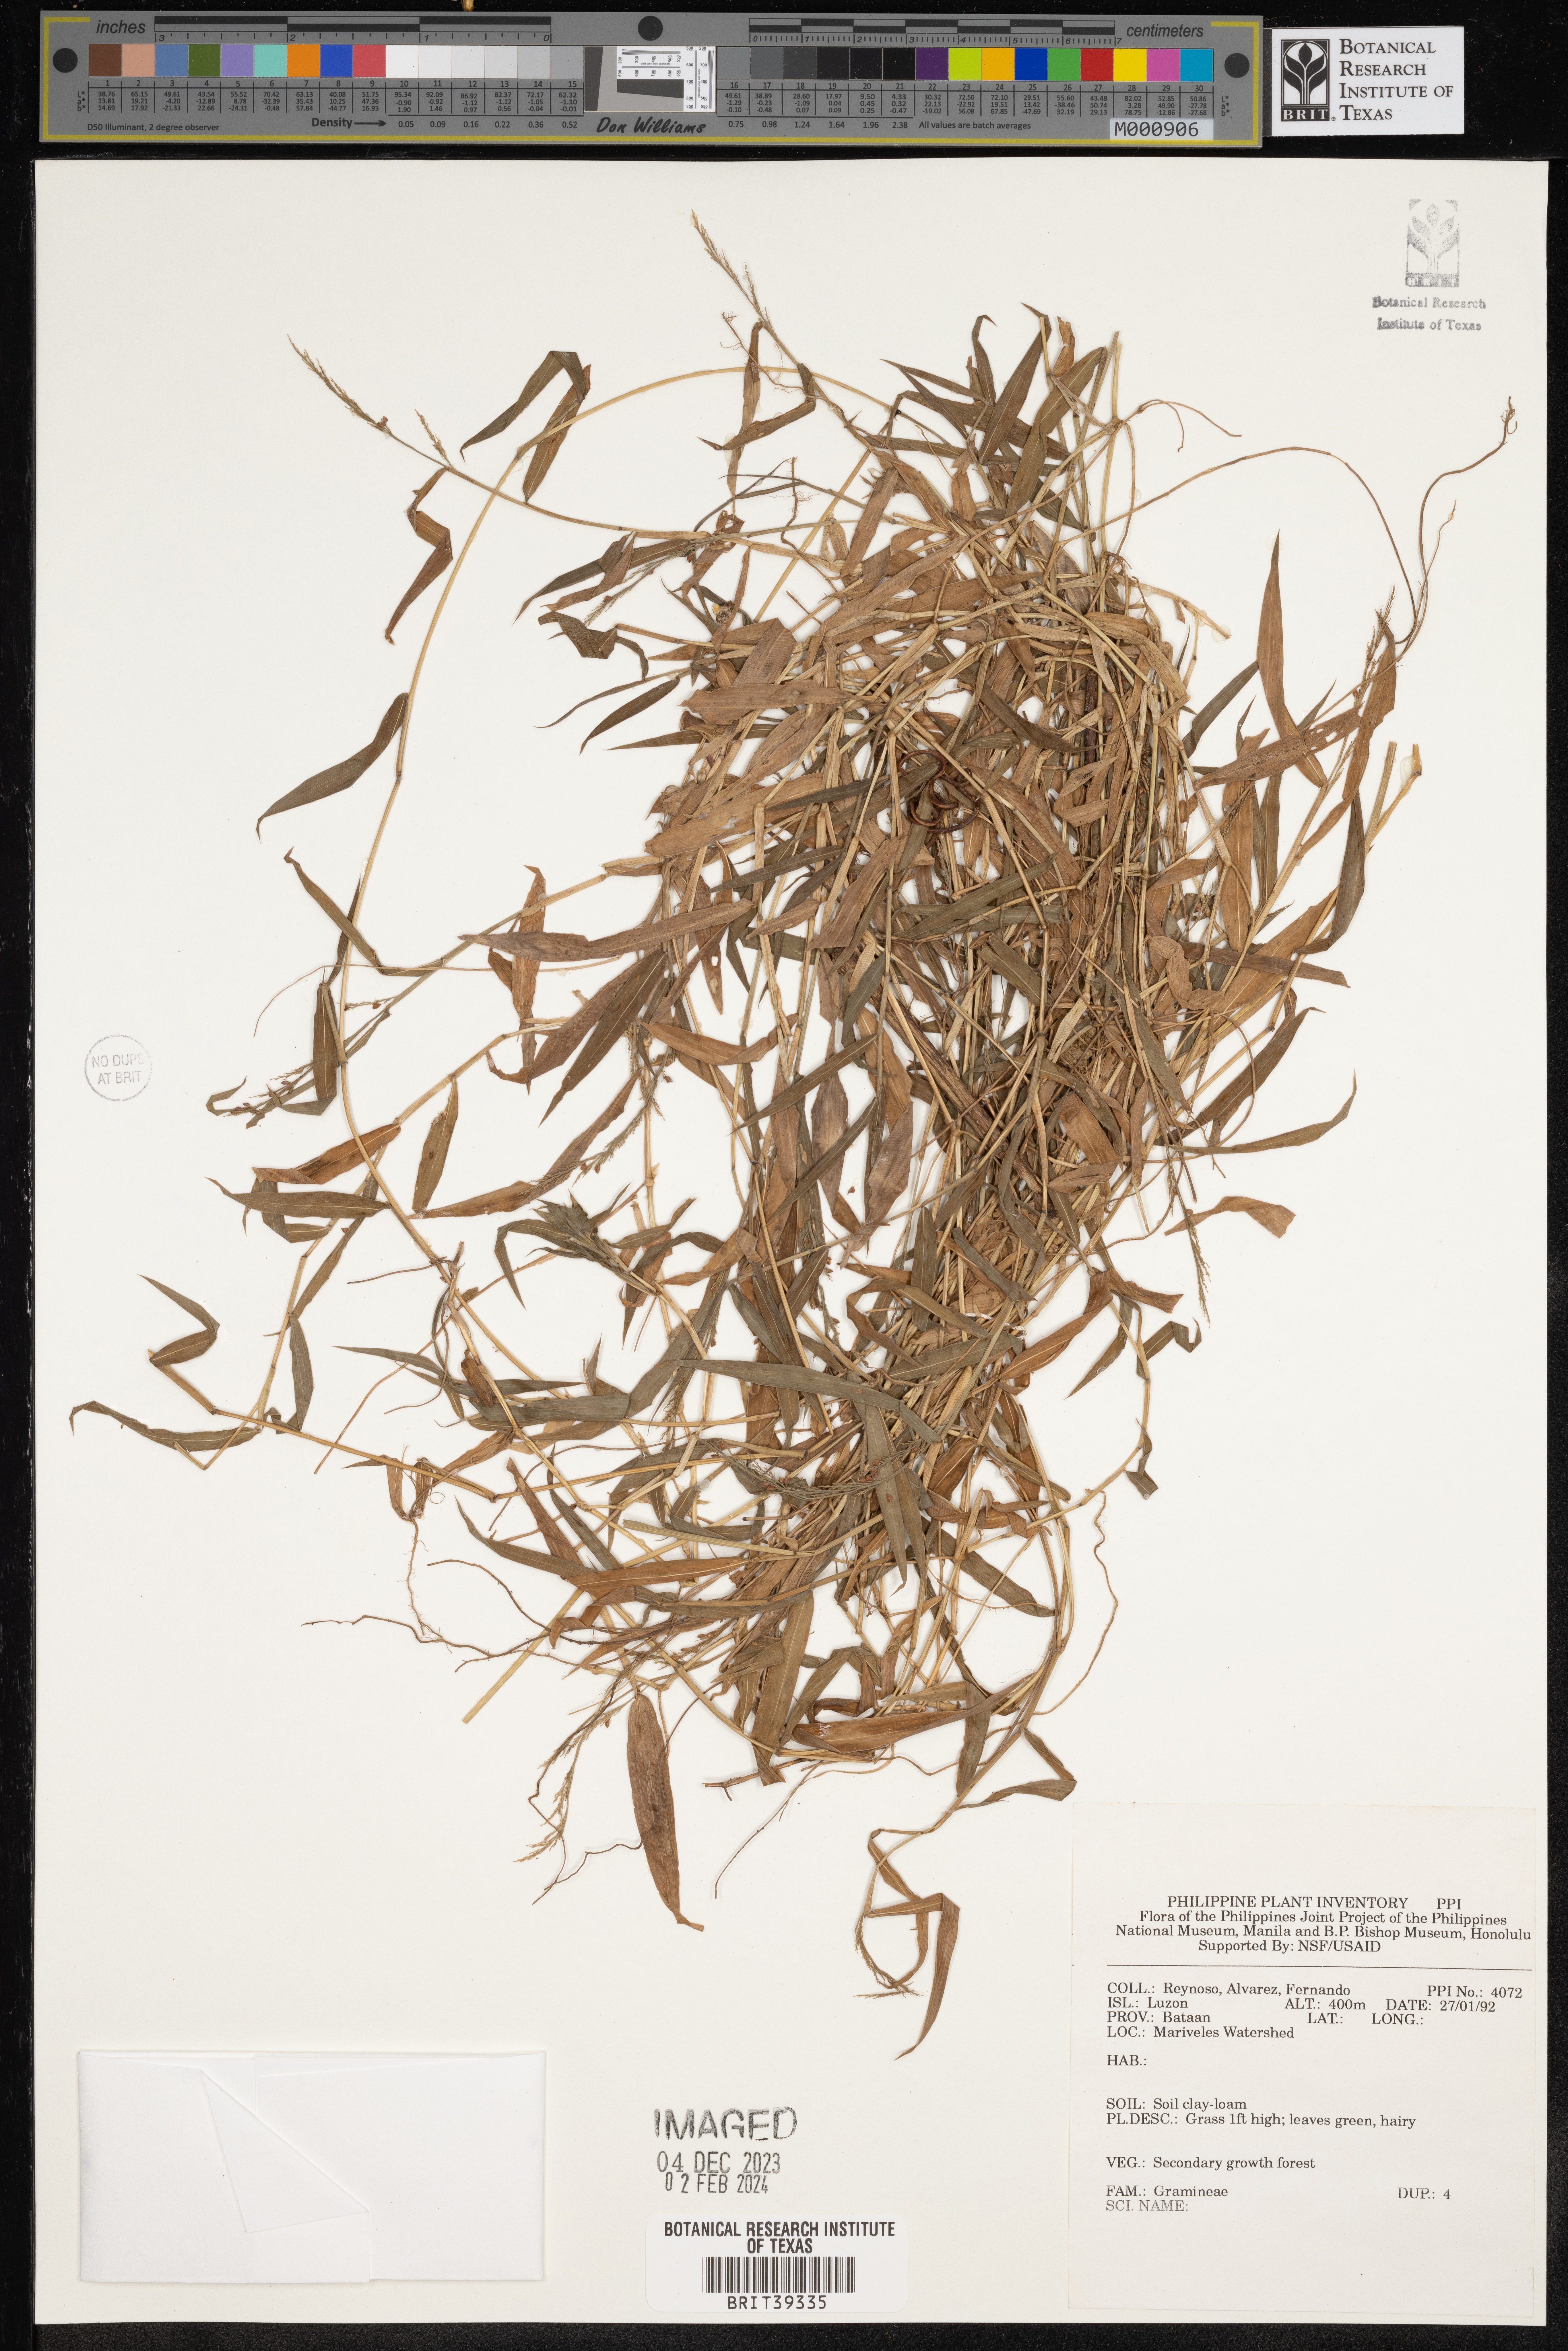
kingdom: Plantae
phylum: Tracheophyta
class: Liliopsida
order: Poales
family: Poaceae
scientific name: Poaceae
